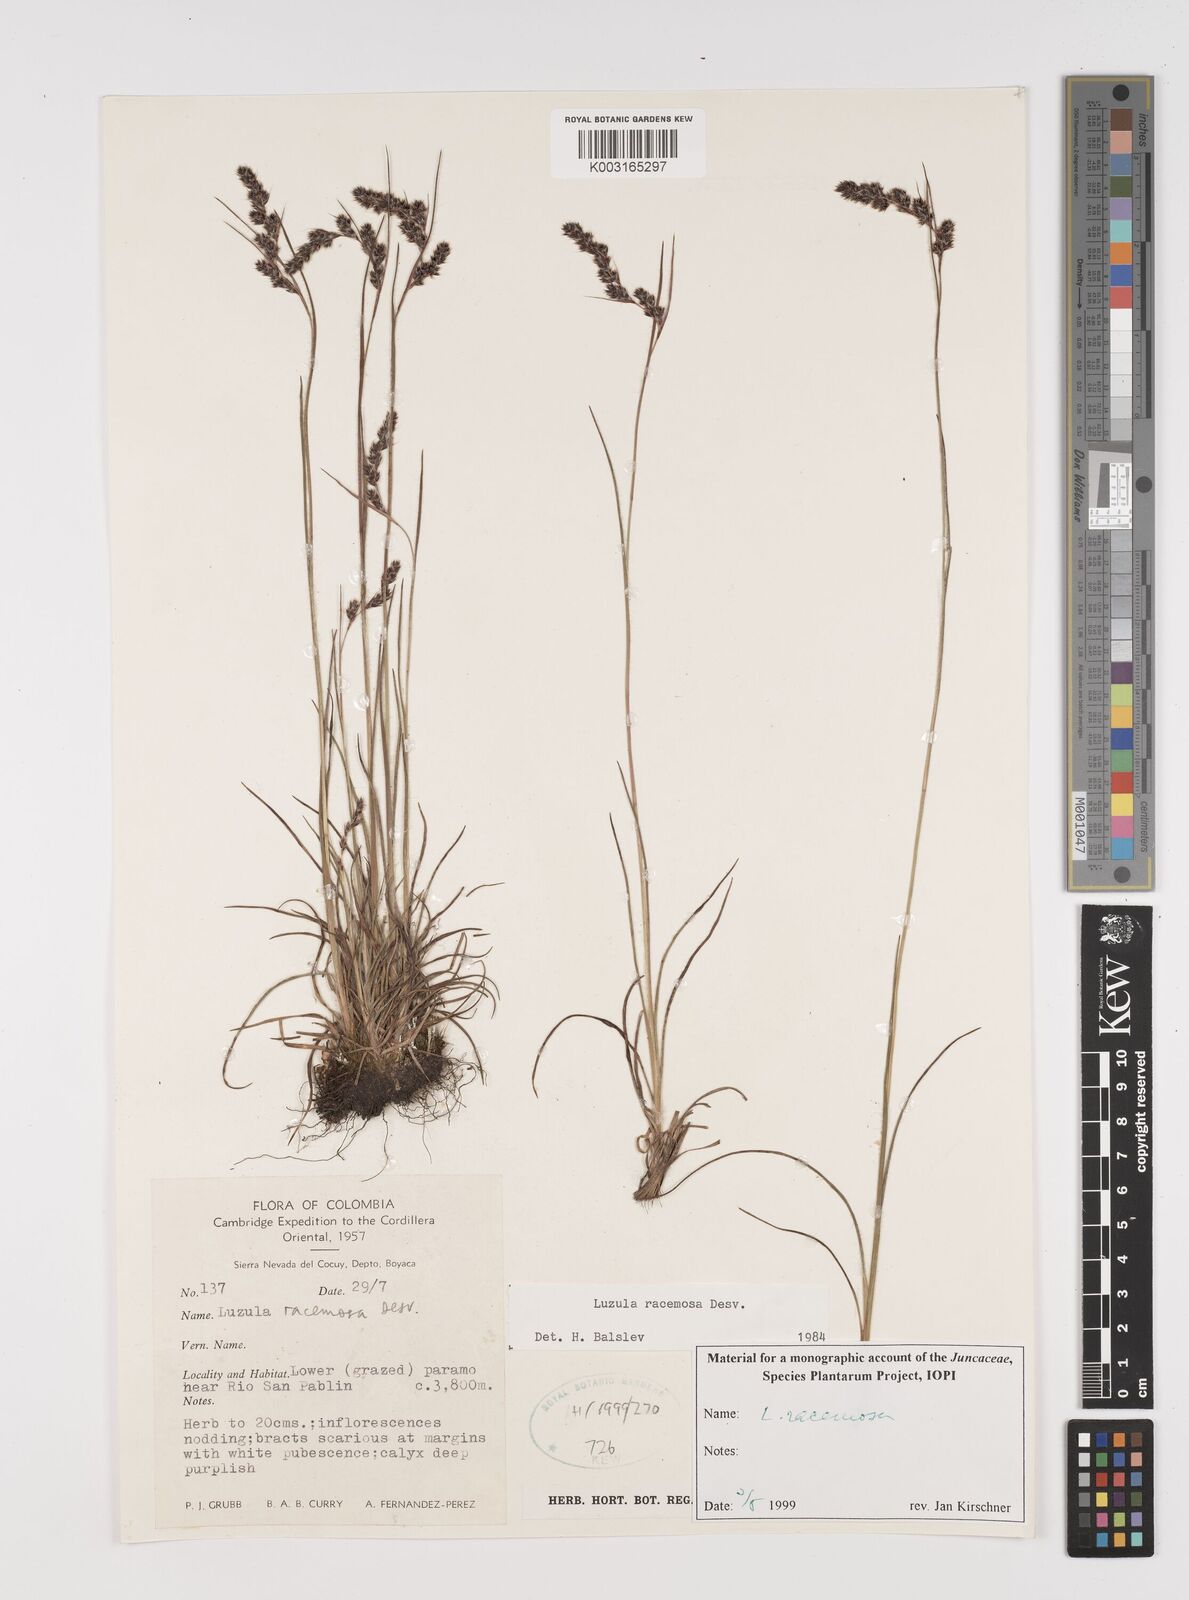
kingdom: Plantae
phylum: Tracheophyta
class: Liliopsida
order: Poales
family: Juncaceae
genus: Luzula
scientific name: Luzula racemosa
